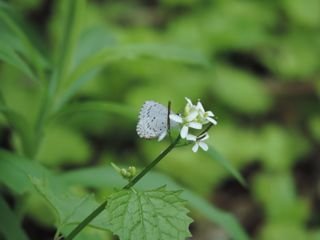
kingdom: Animalia
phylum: Arthropoda
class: Insecta
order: Lepidoptera
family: Lycaenidae
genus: Celastrina
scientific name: Celastrina serotina
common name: Cherry Gall Azure
